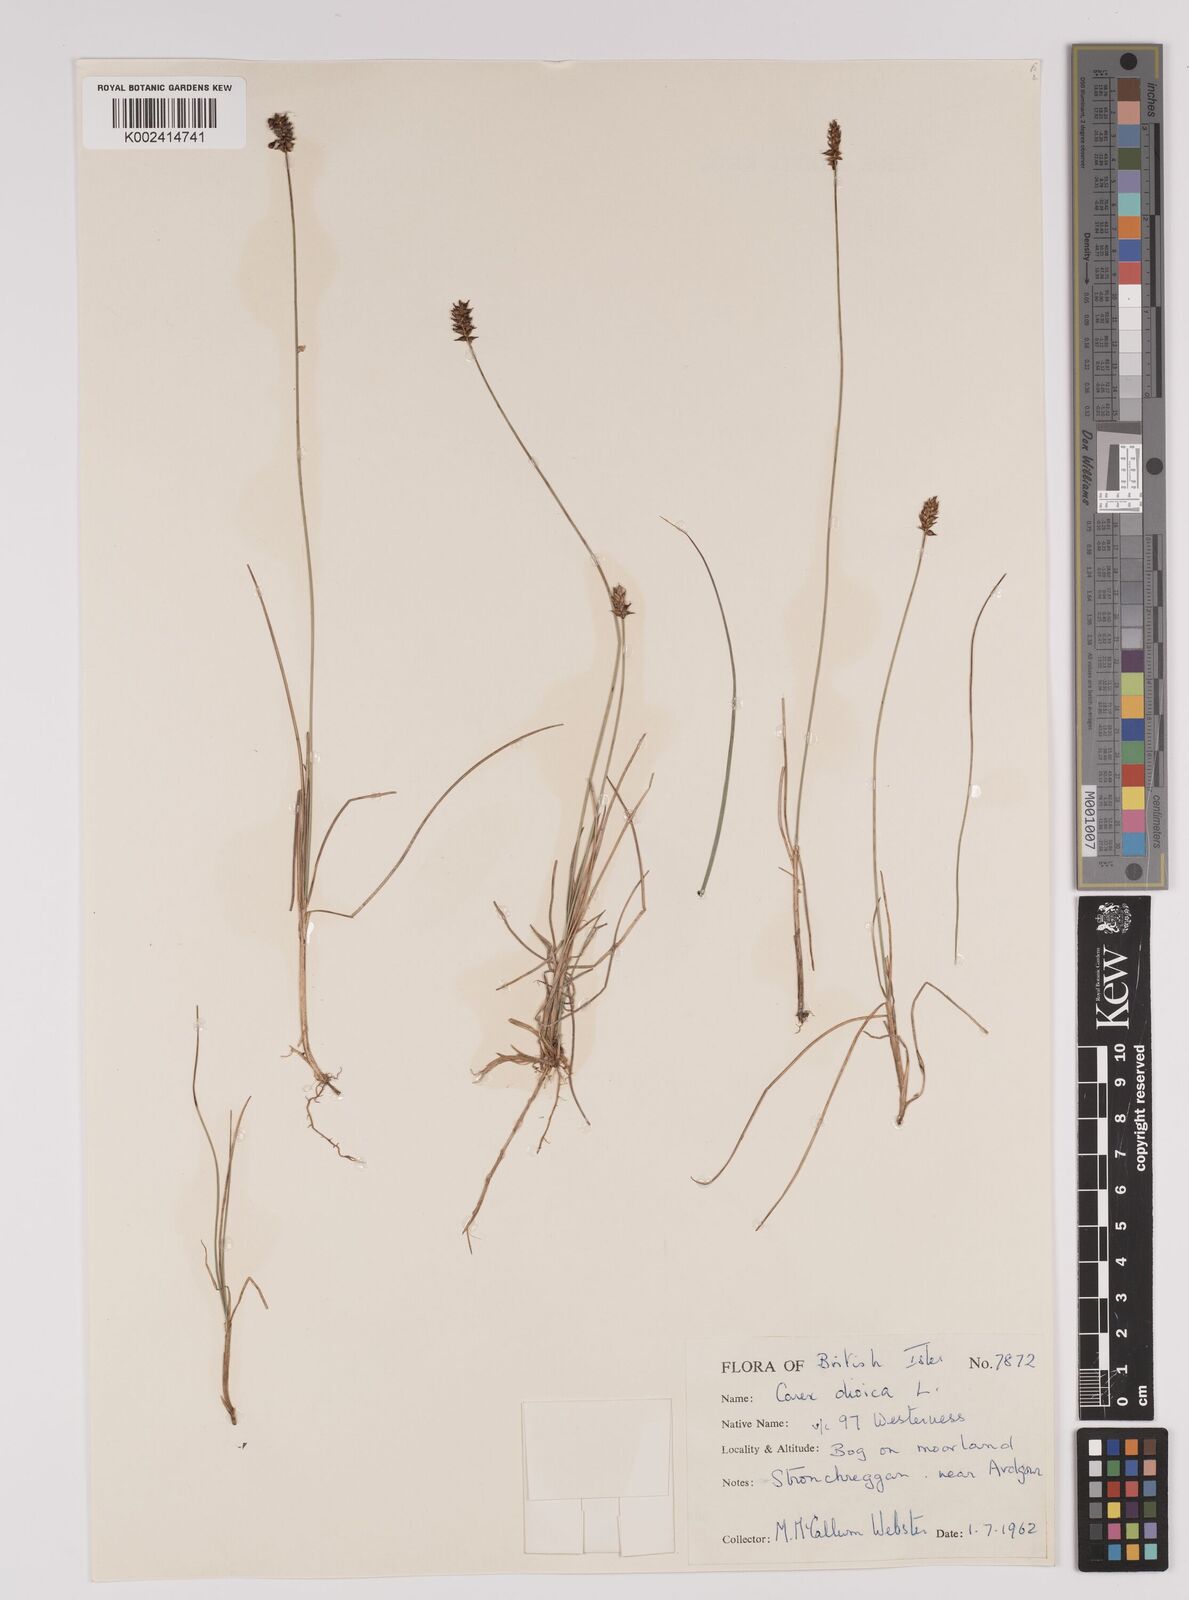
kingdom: Plantae
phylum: Tracheophyta
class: Liliopsida
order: Poales
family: Cyperaceae
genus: Carex
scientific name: Carex dioica
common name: Dioecious sedge
